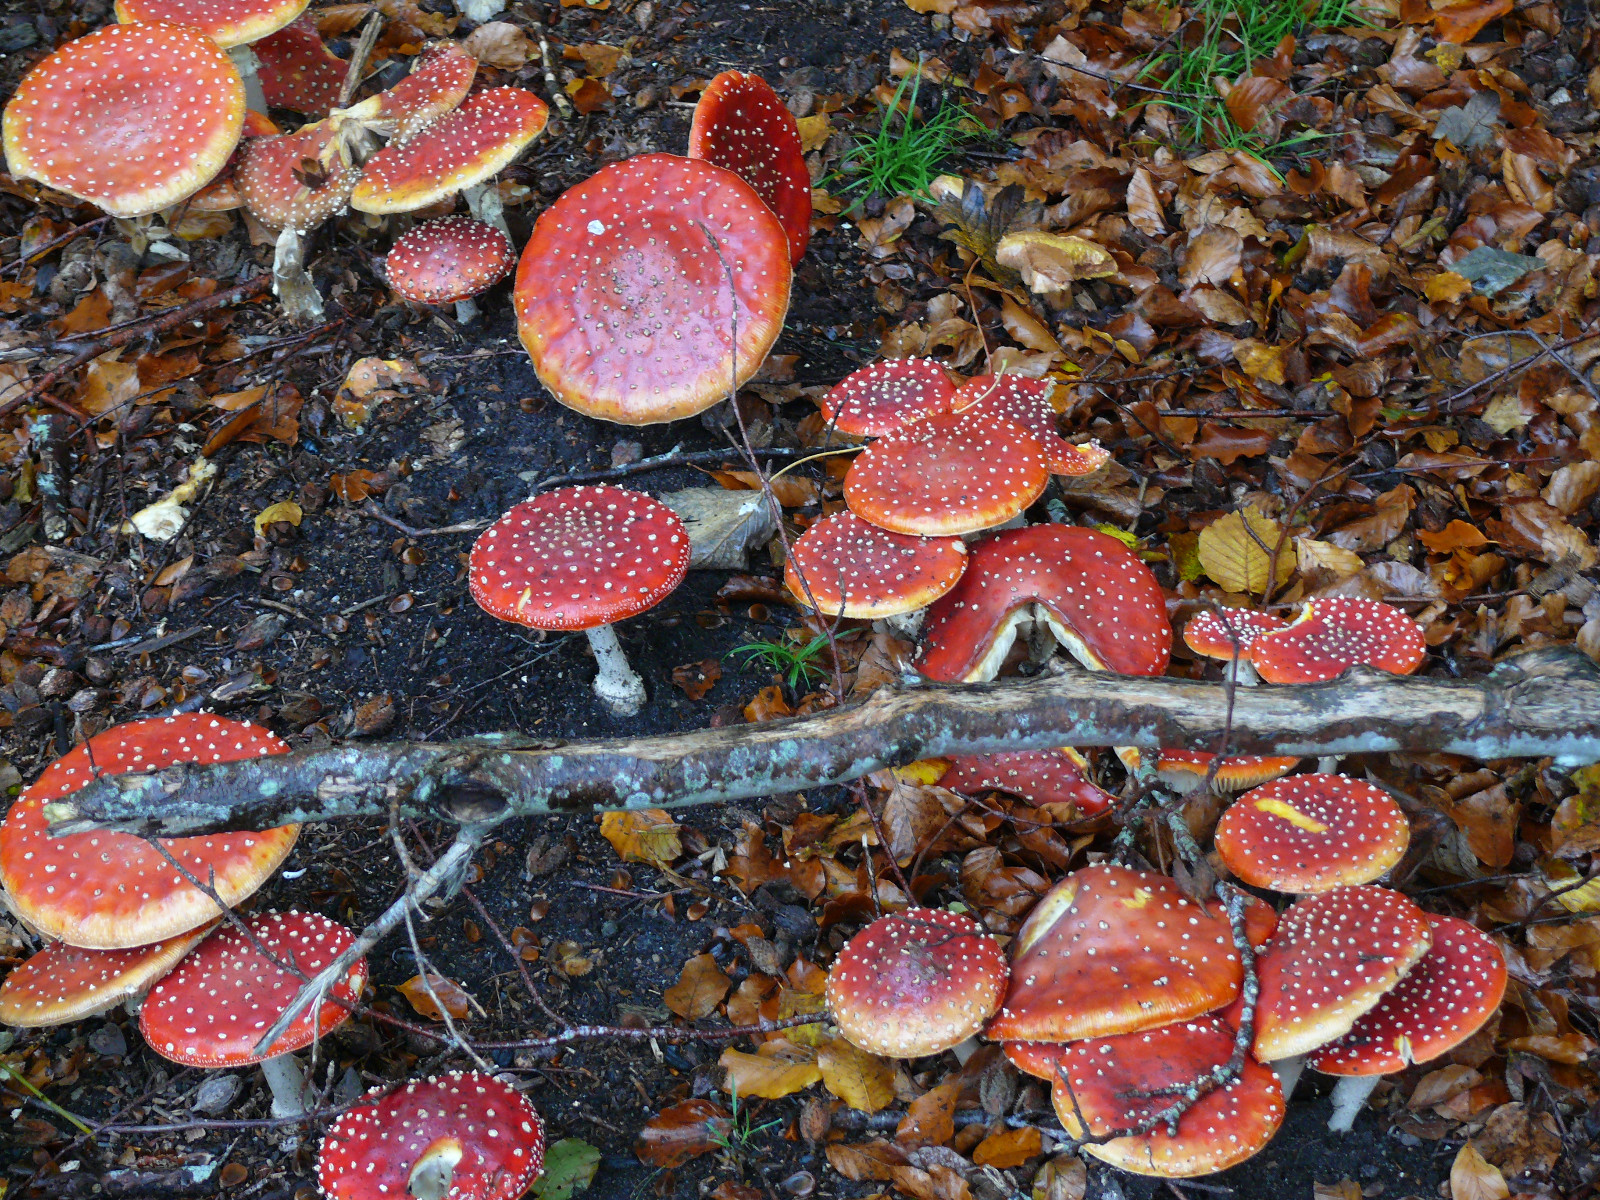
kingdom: Fungi
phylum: Basidiomycota
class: Agaricomycetes
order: Agaricales
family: Amanitaceae
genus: Amanita
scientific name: Amanita muscaria
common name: rød fluesvamp
